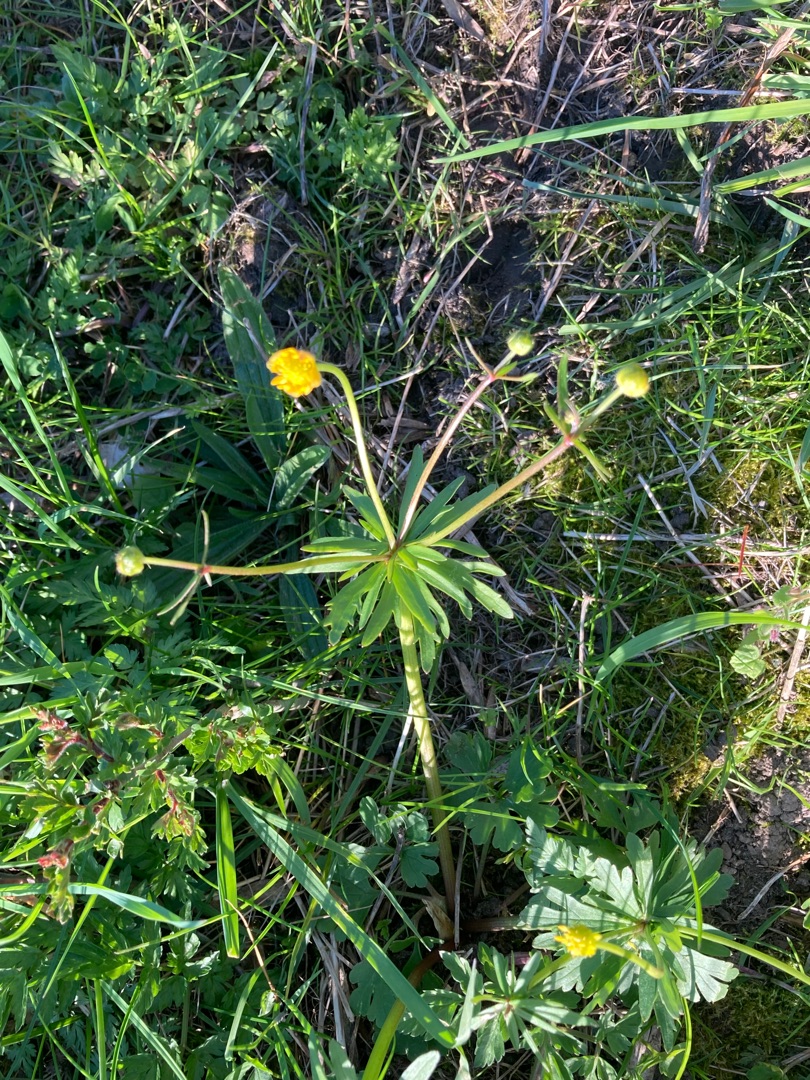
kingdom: Plantae
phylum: Tracheophyta
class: Magnoliopsida
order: Ranunculales
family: Ranunculaceae
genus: Ranunculus
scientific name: Ranunculus auricomus
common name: Nyrebladet ranunkel
